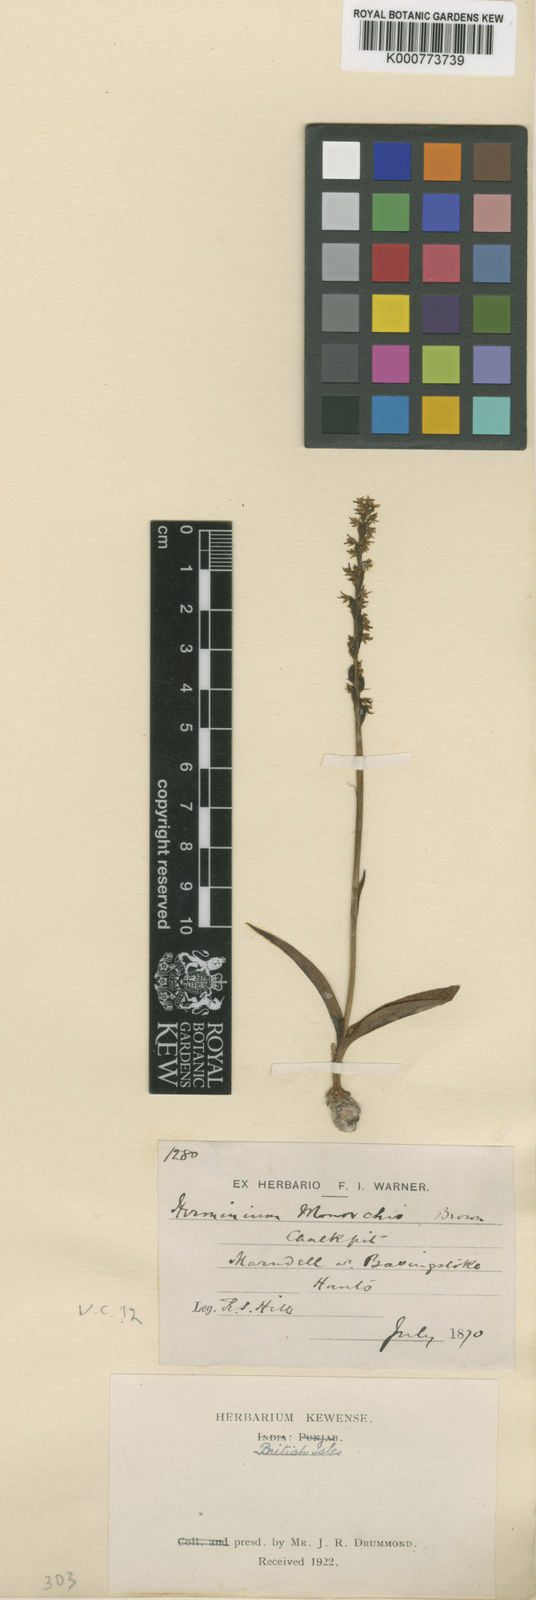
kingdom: Plantae
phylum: Tracheophyta
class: Liliopsida
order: Asparagales
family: Orchidaceae
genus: Herminium
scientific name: Herminium monorchis
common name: Musk orchid
